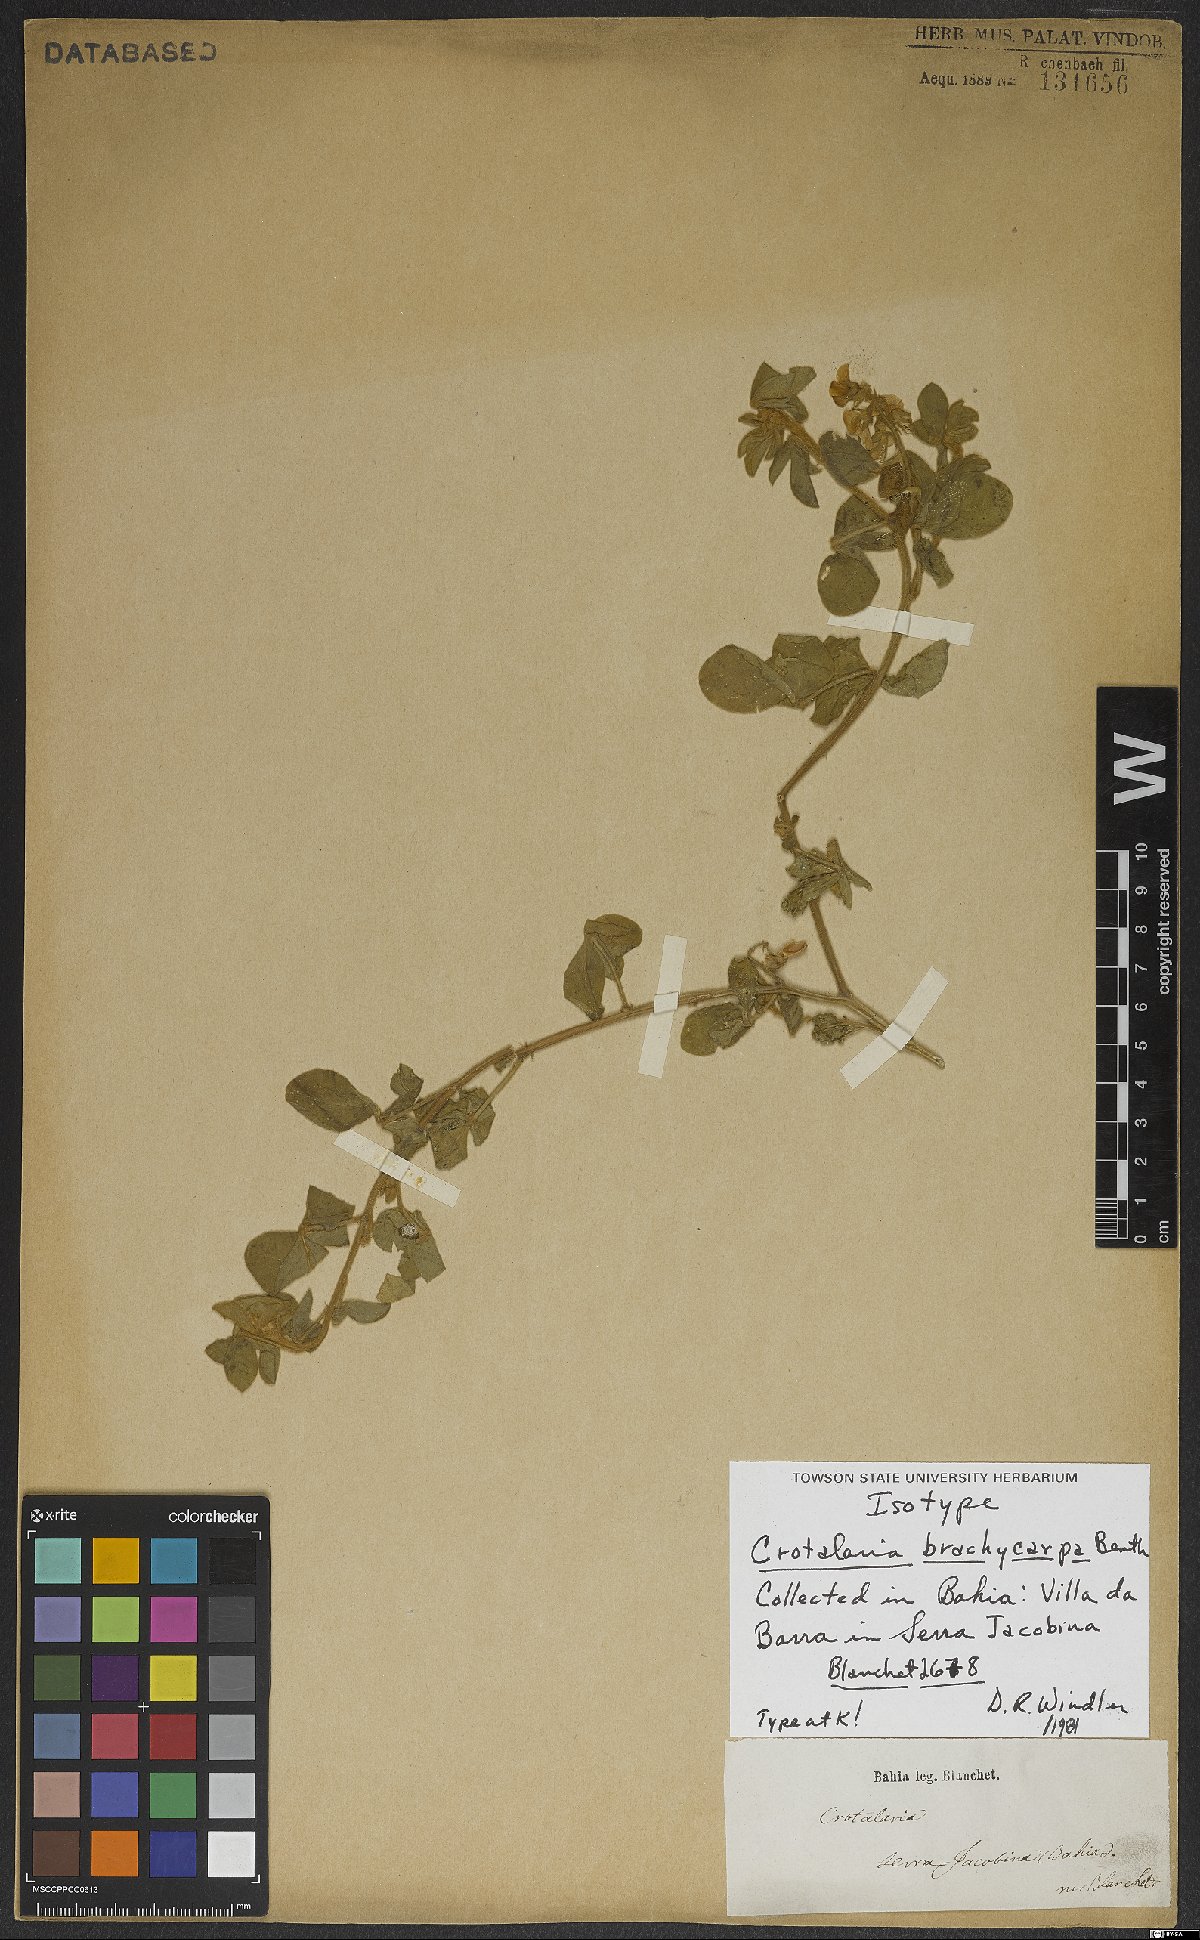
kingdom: Plantae
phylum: Tracheophyta
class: Magnoliopsida
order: Fabales
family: Fabaceae
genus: Crotalaria
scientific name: Crotalaria brachycarpa
